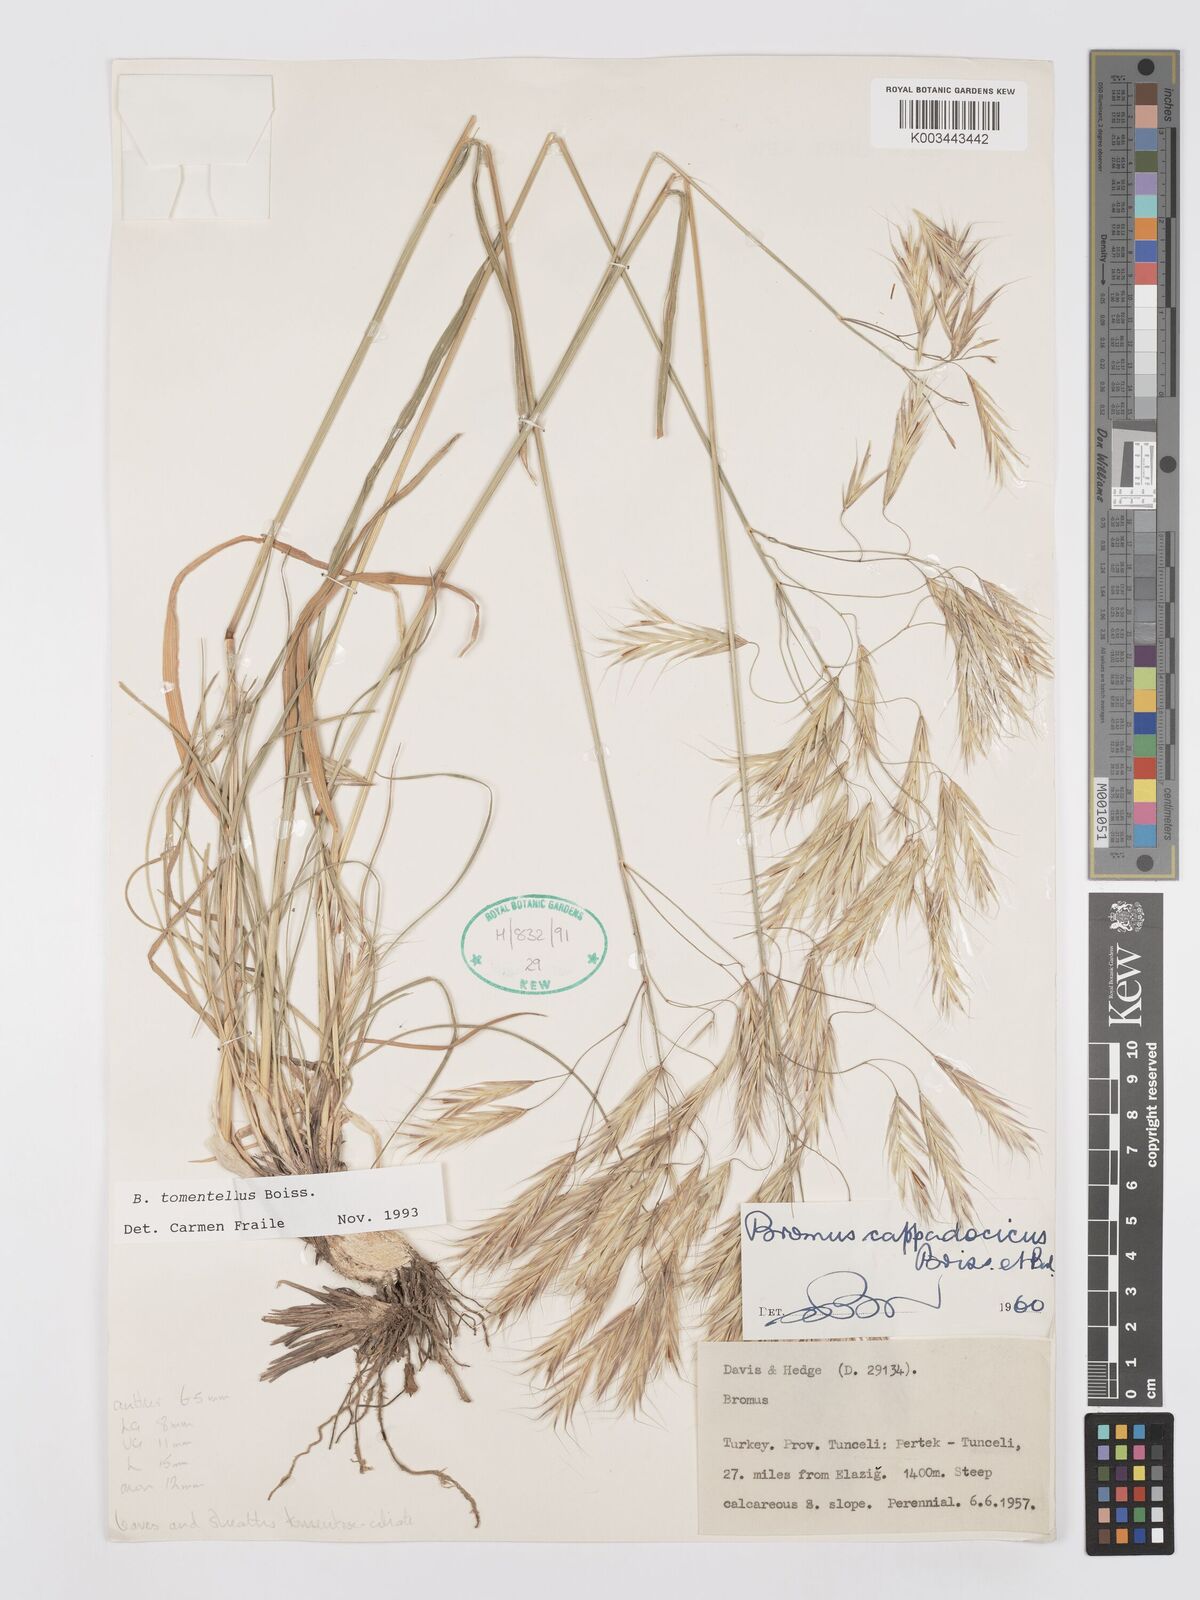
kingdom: Plantae
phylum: Tracheophyta
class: Liliopsida
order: Poales
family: Poaceae
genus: Bromus
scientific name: Bromus tomentellus
